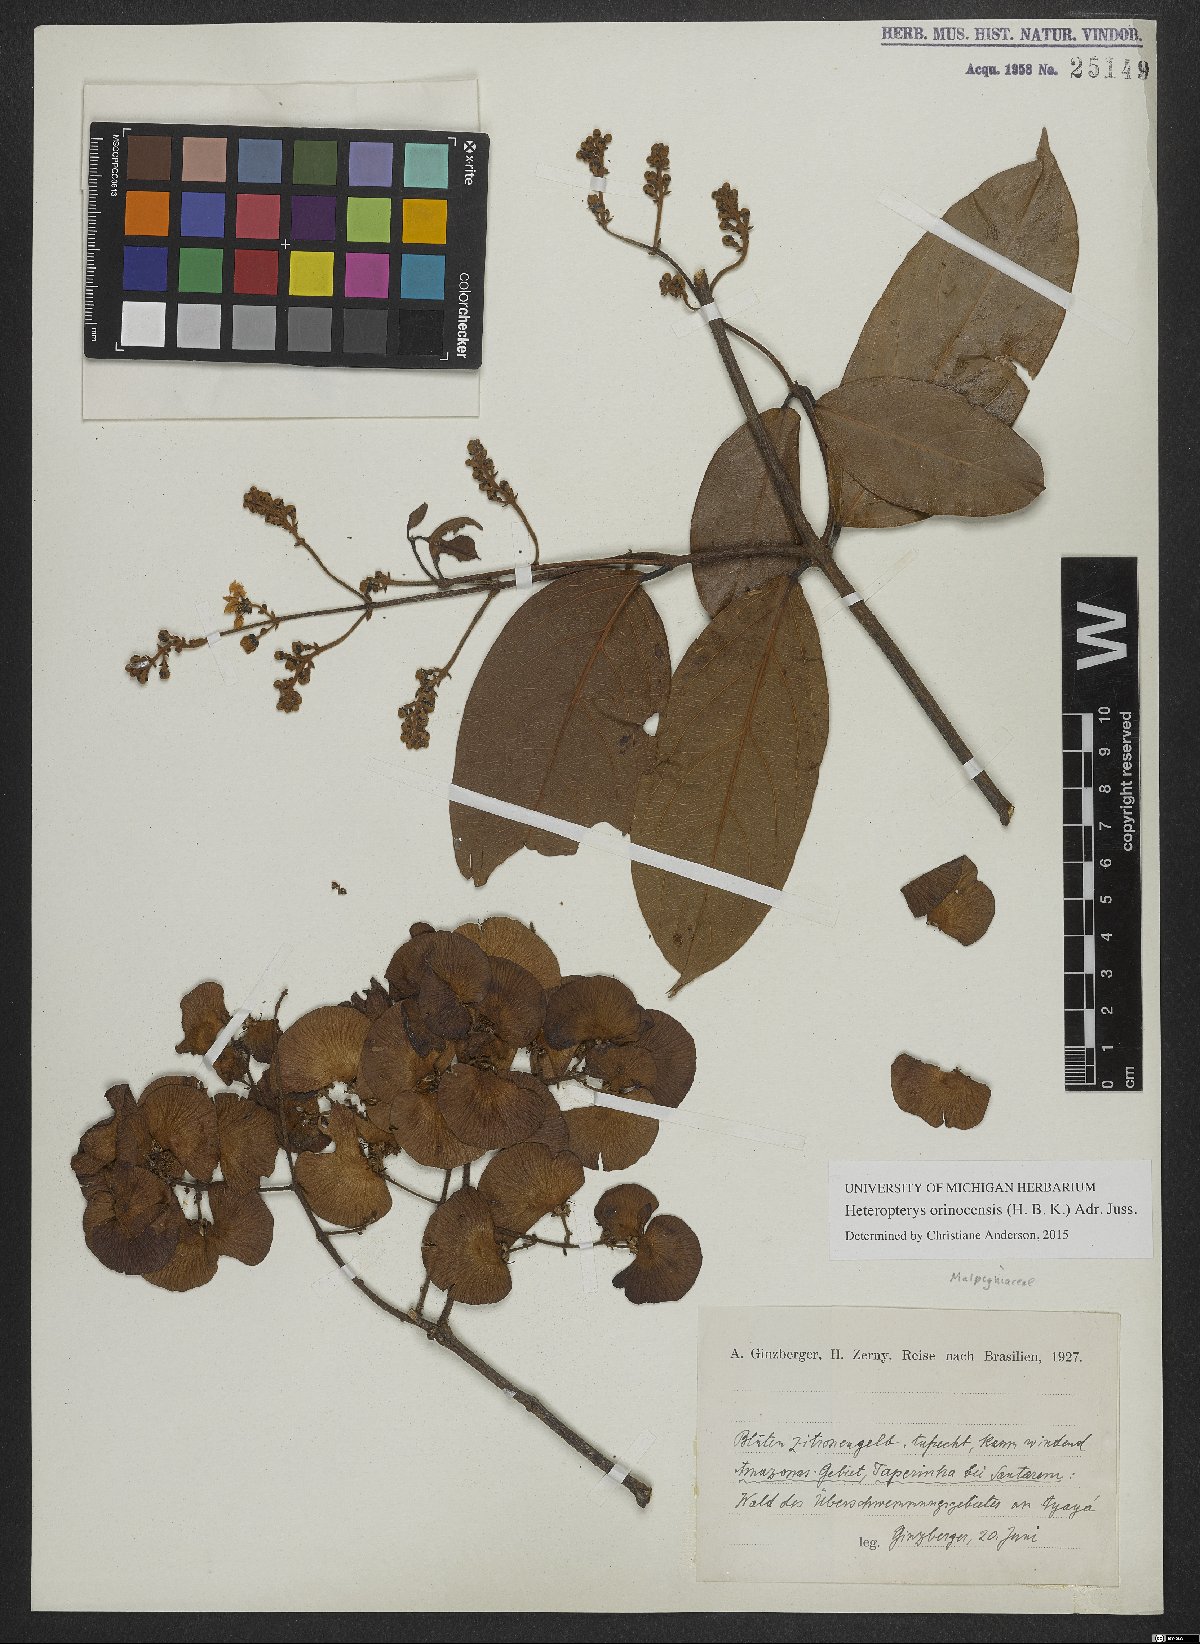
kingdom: Plantae
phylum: Tracheophyta
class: Magnoliopsida
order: Malpighiales
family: Malpighiaceae
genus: Heteropterys
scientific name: Heteropterys orinocensis
